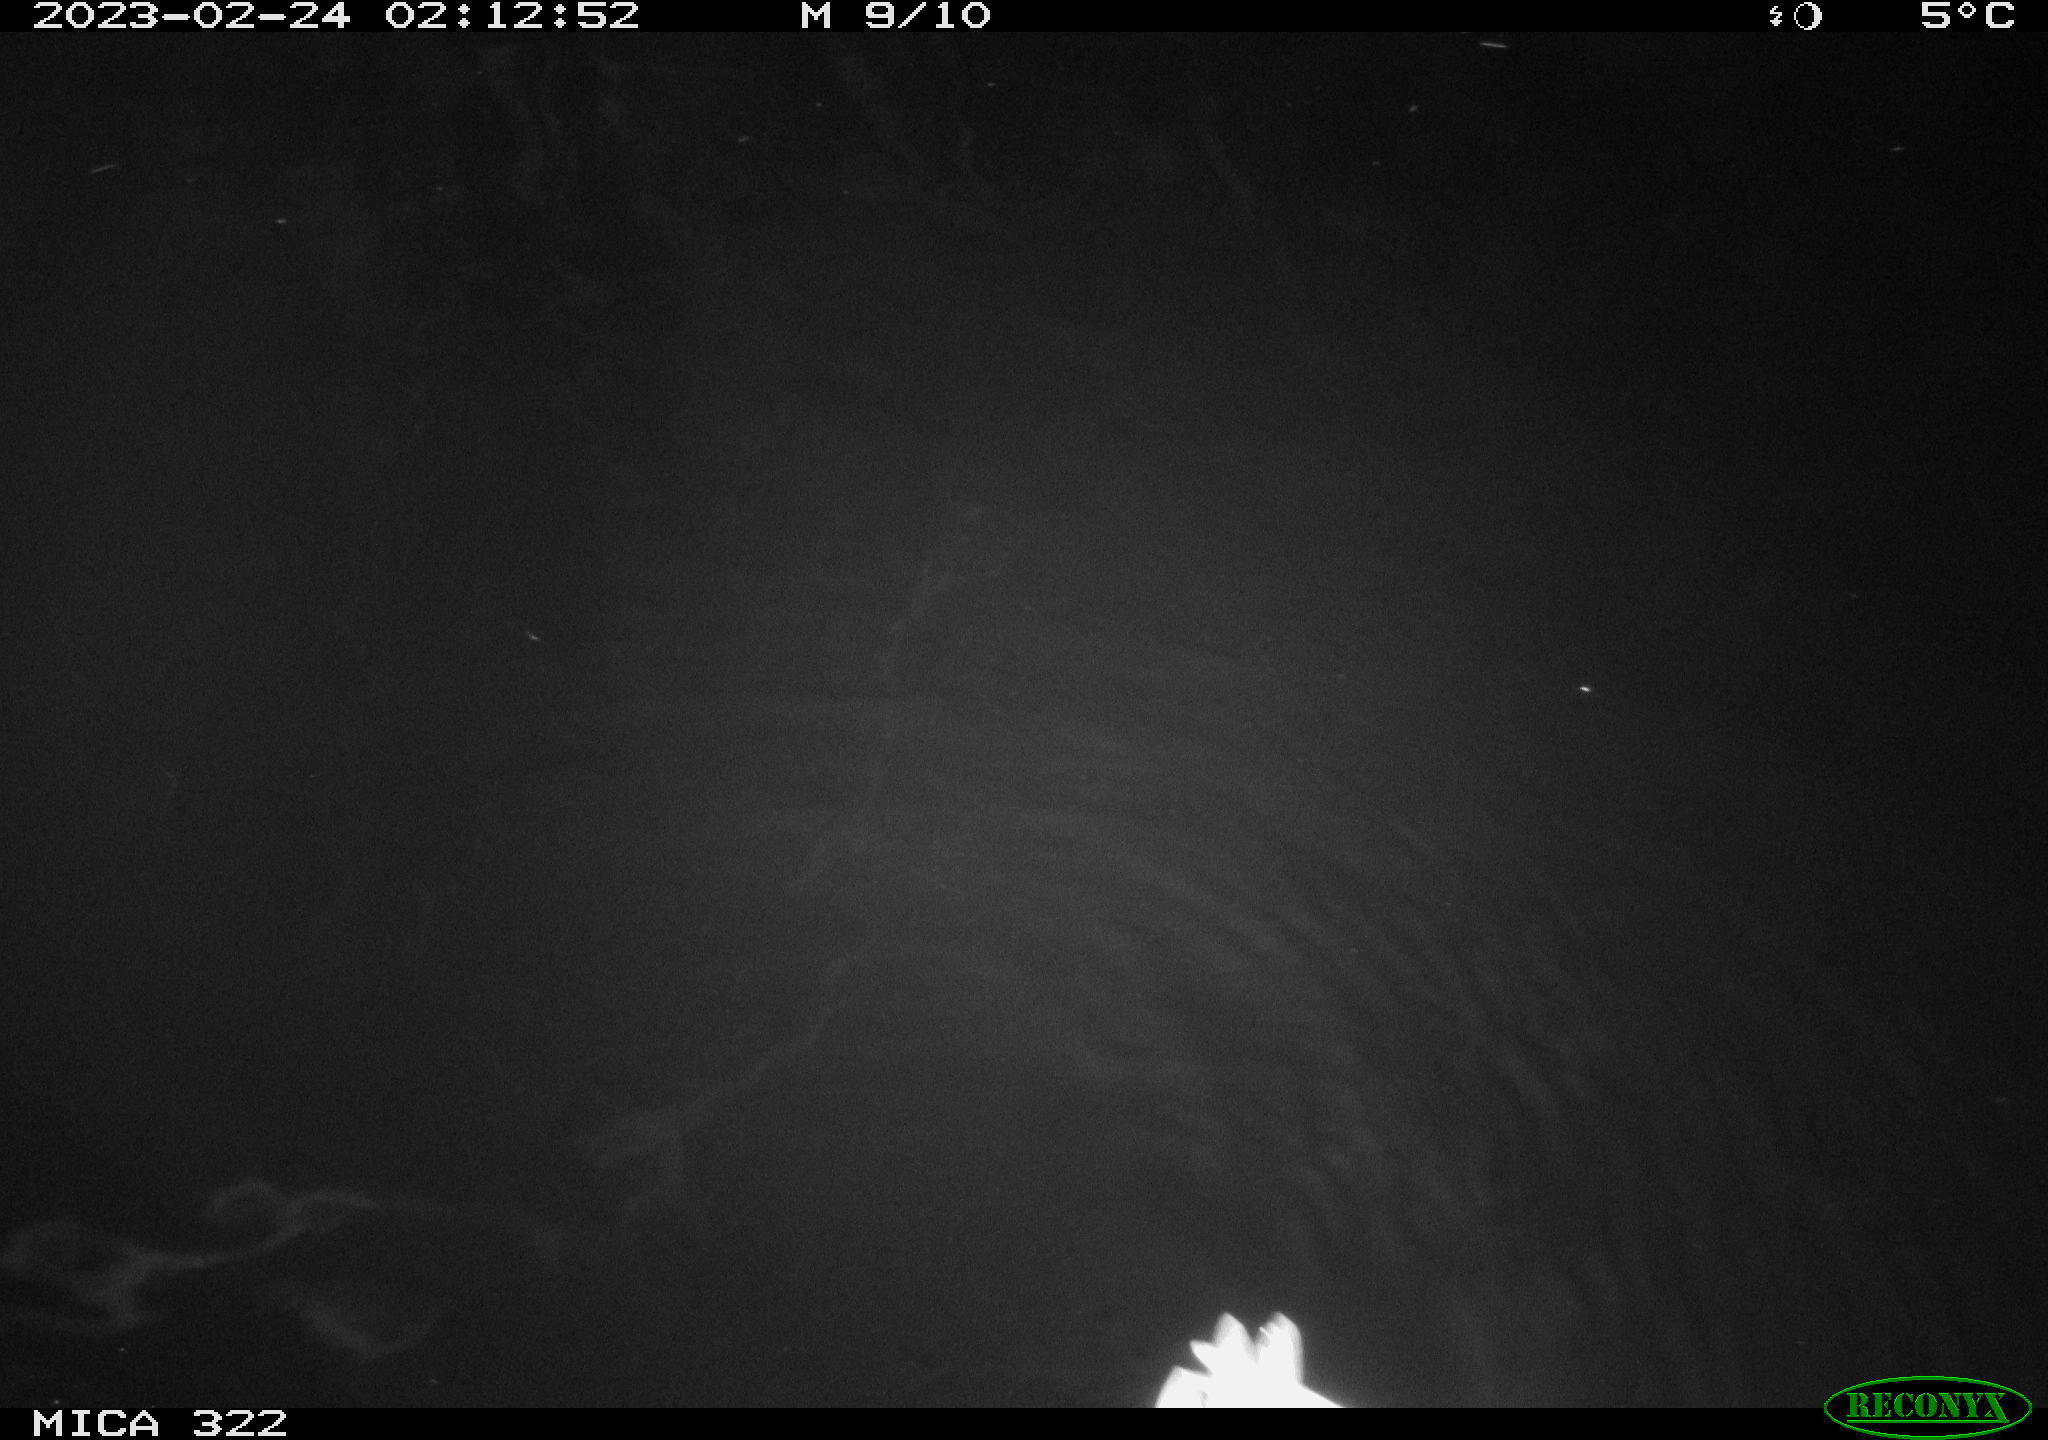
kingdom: Animalia
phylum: Chordata
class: Aves
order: Anseriformes
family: Anatidae
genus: Anas
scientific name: Anas
